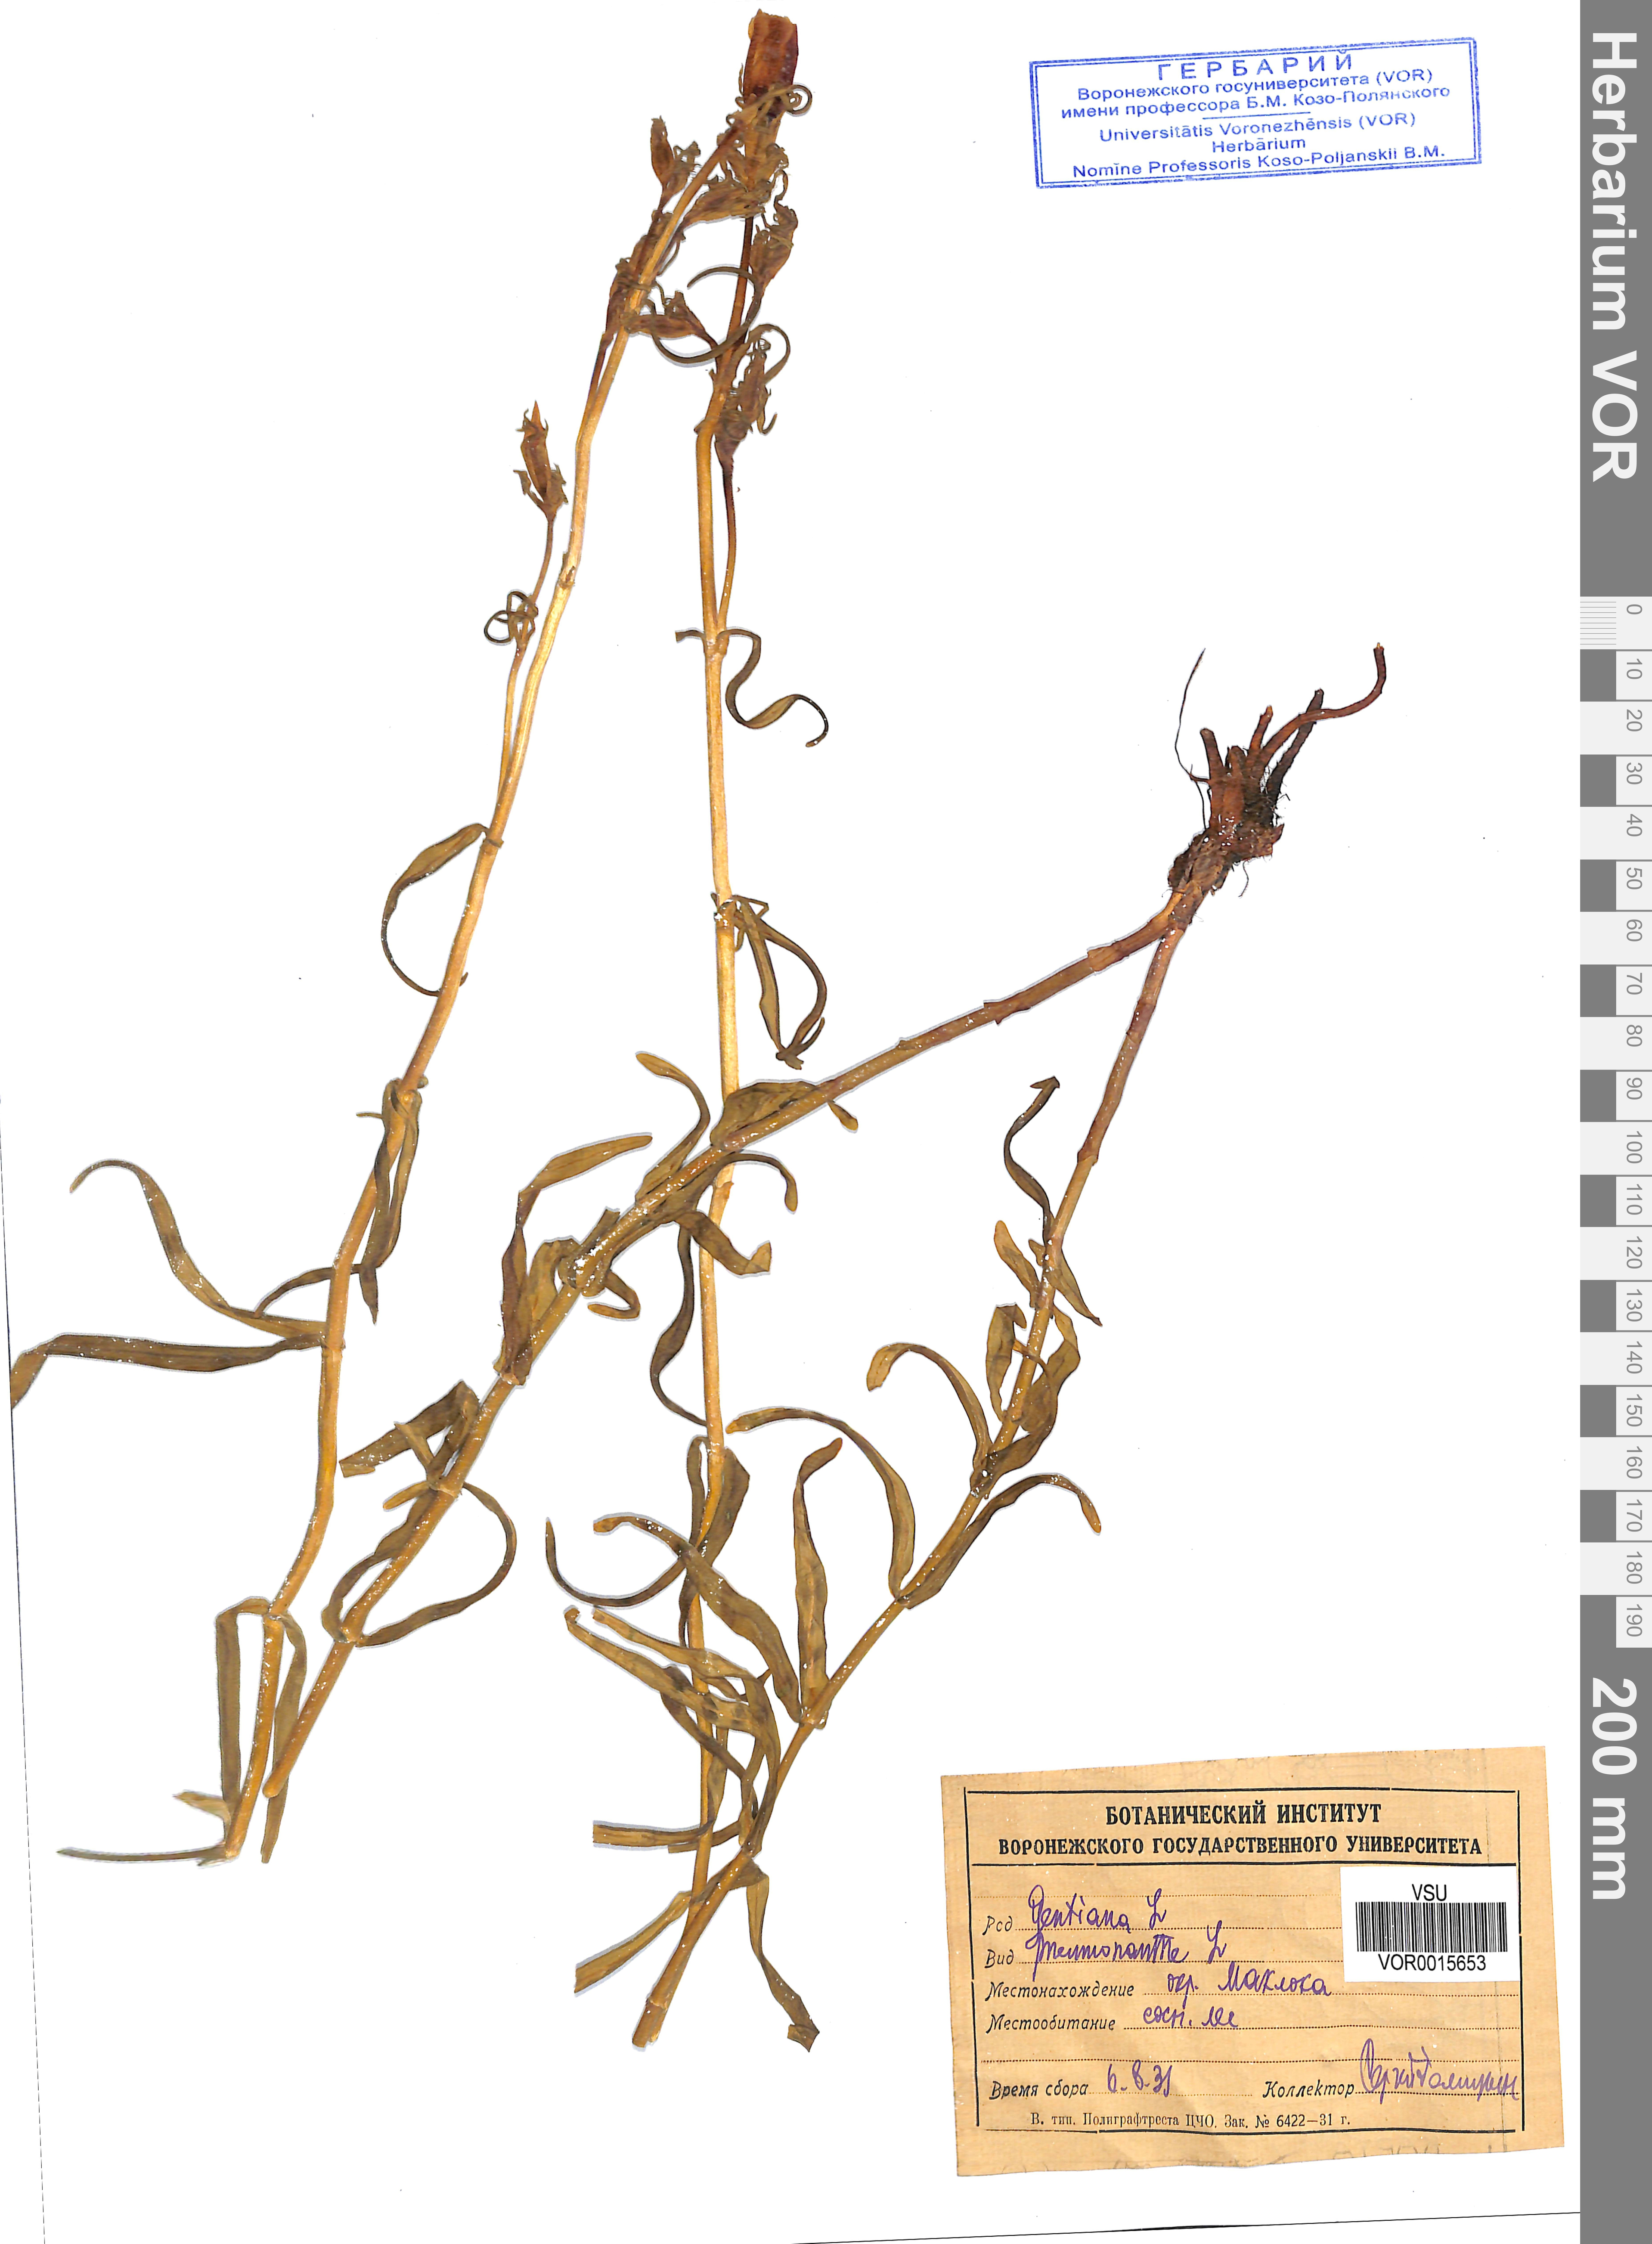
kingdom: Plantae
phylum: Tracheophyta
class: Magnoliopsida
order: Gentianales
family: Gentianaceae
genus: Gentiana
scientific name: Gentiana pneumonanthe
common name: Marsh gentian
